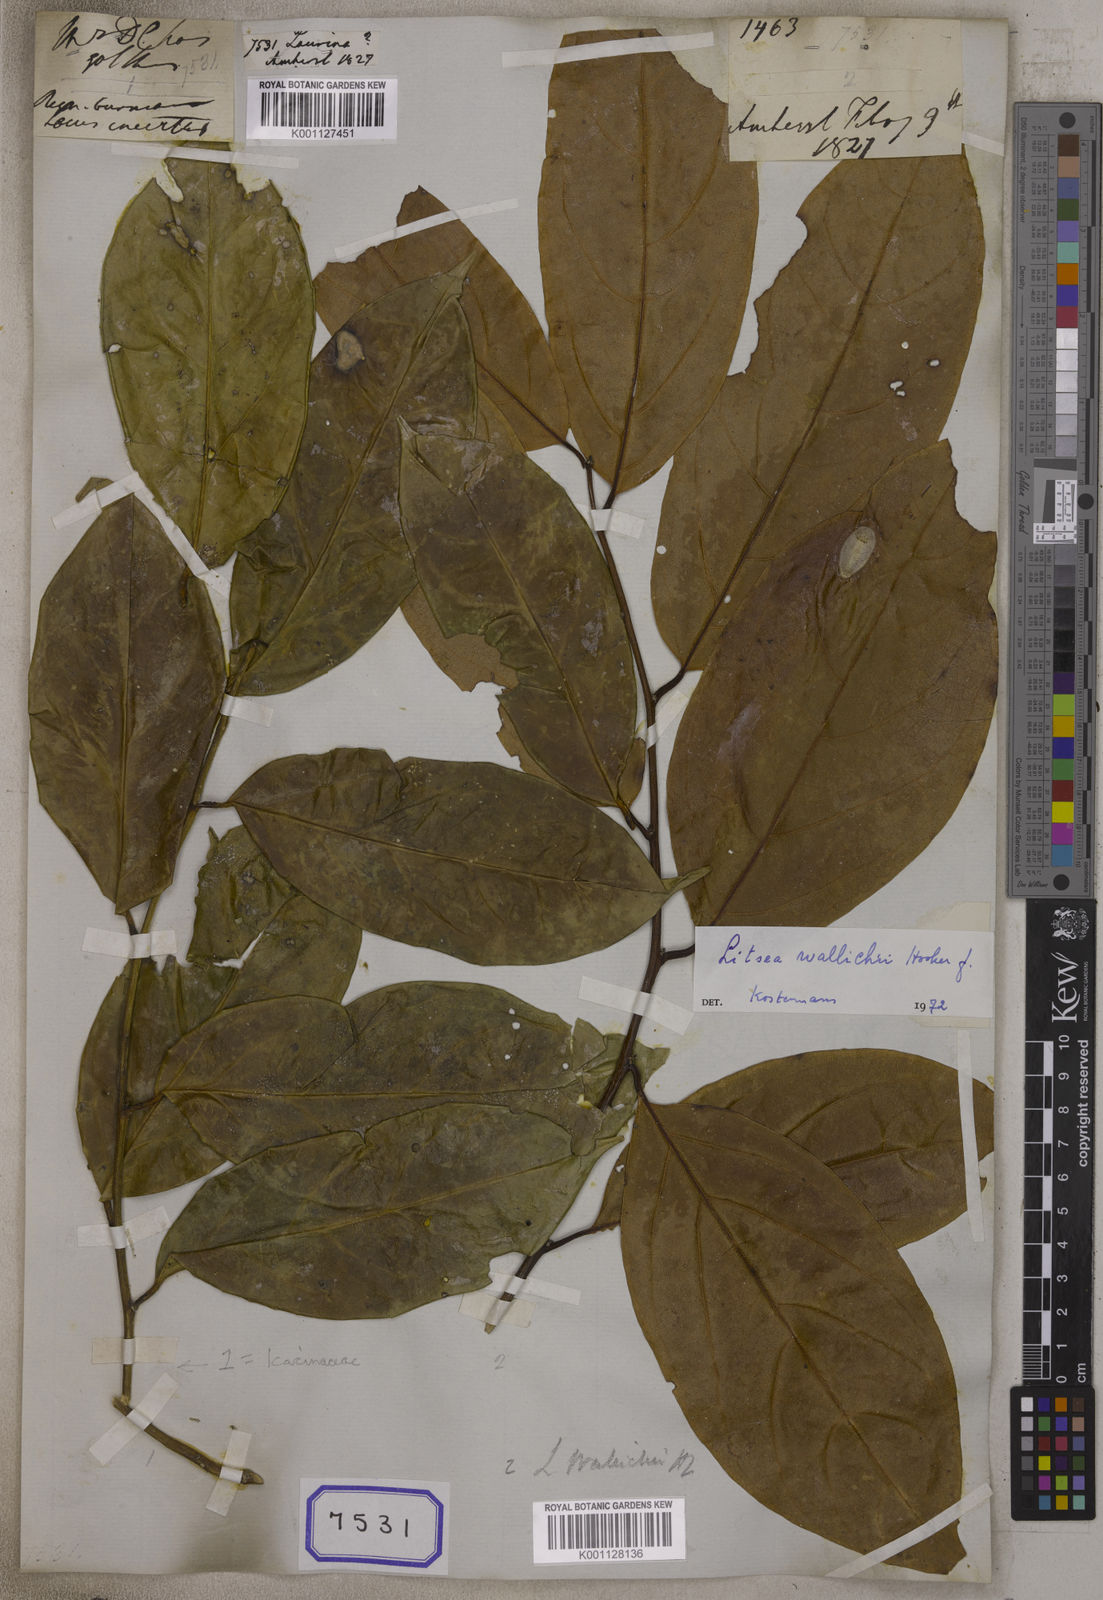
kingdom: Plantae
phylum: Tracheophyta
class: Magnoliopsida
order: Laurales
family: Lauraceae
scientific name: Lauraceae
